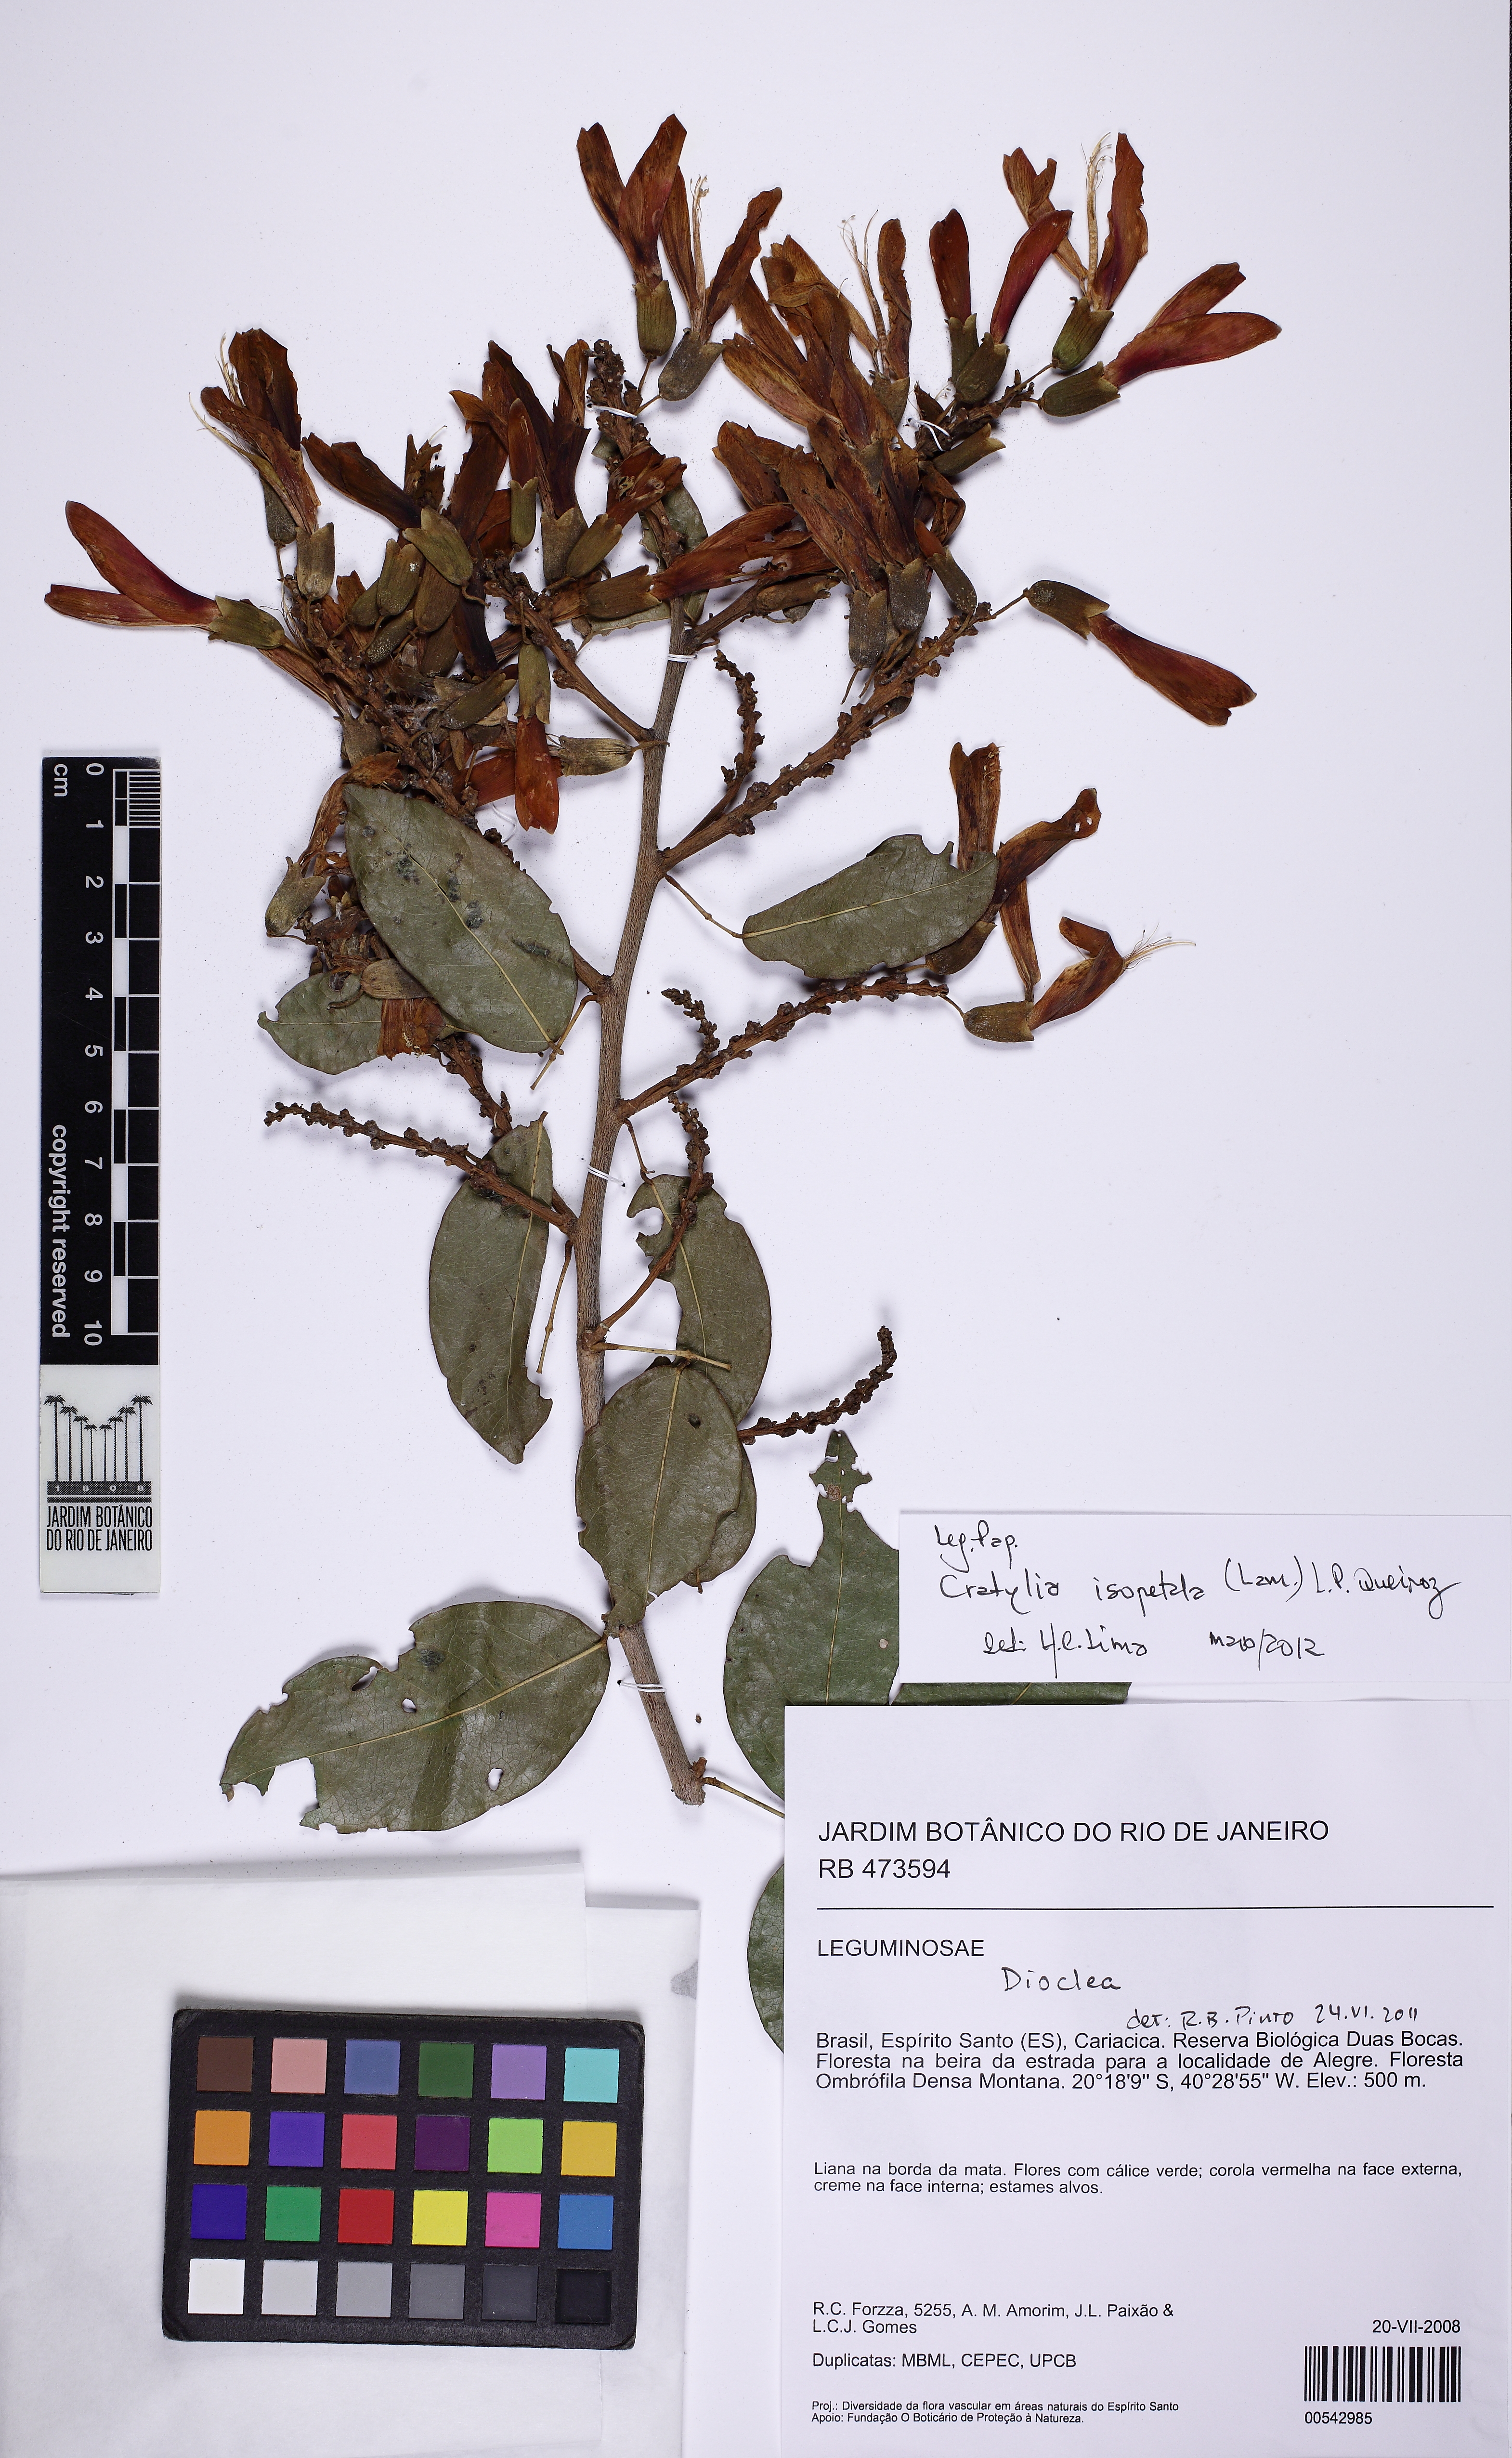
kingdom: Plantae
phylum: Tracheophyta
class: Magnoliopsida
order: Fabales
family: Fabaceae
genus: Dioclea
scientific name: Dioclea
